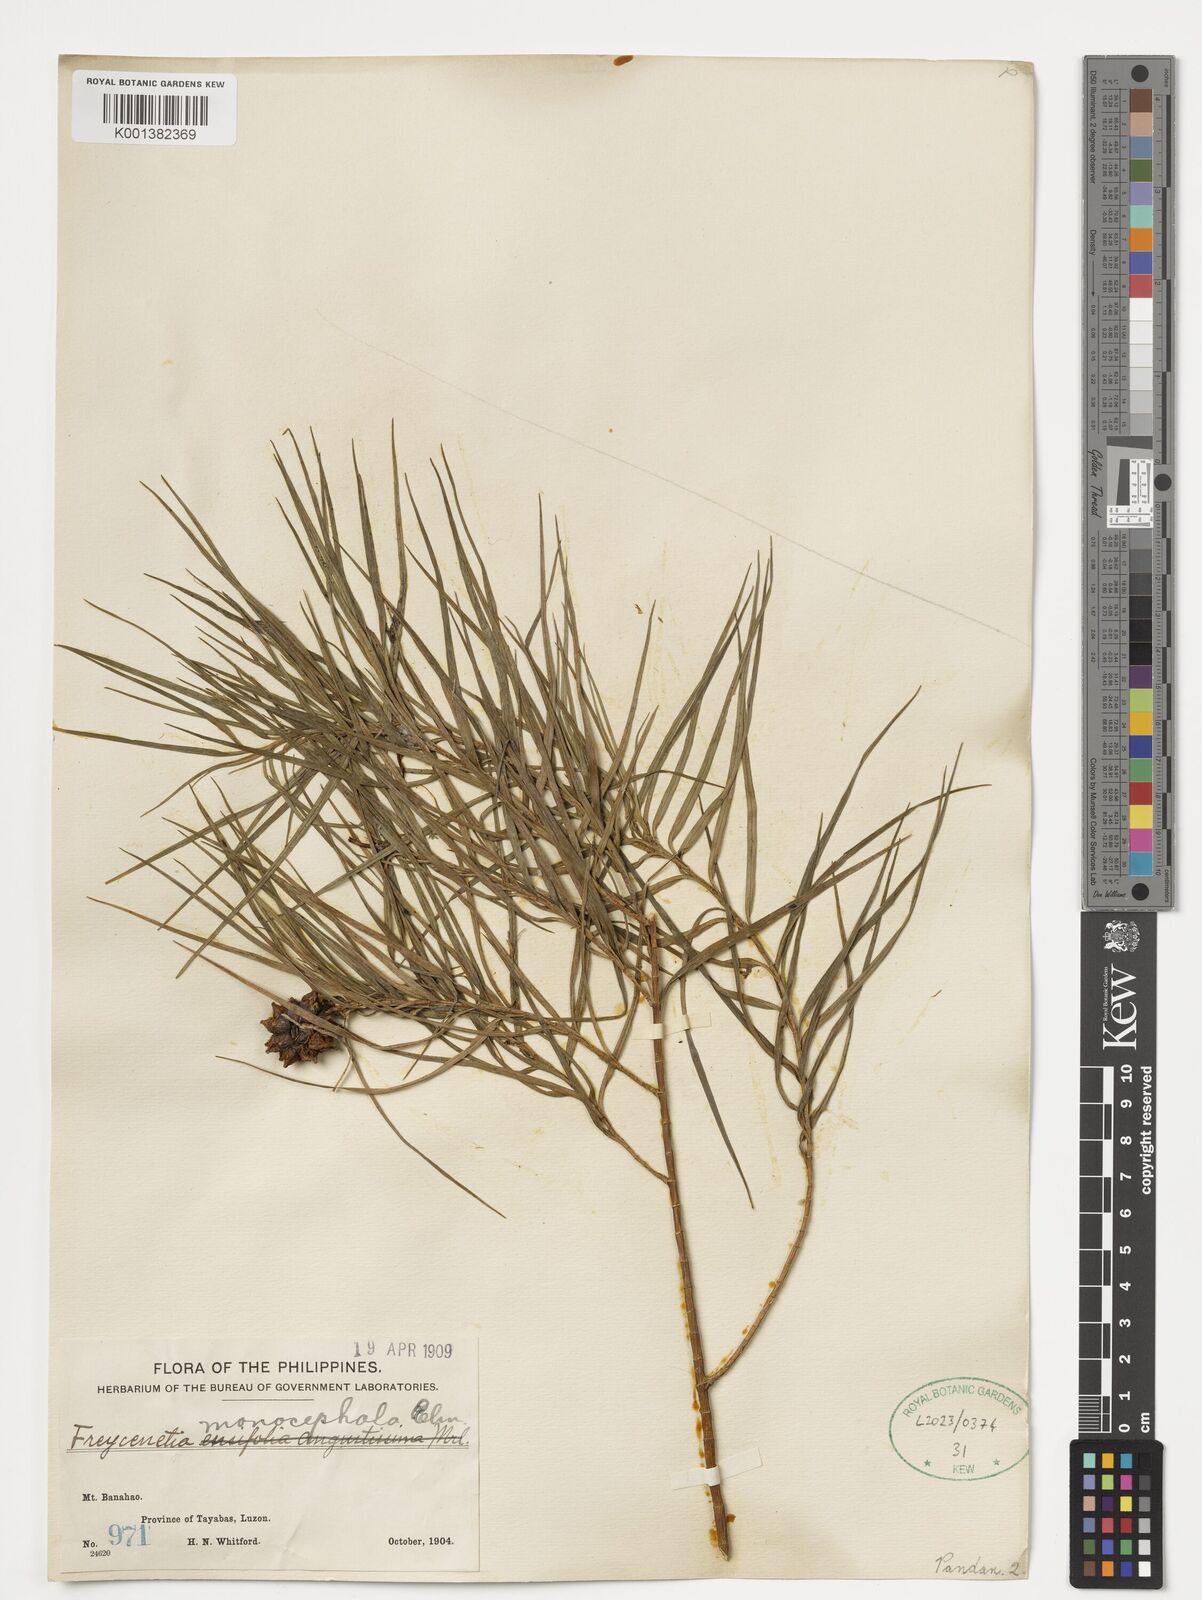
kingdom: Plantae
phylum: Tracheophyta
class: Liliopsida
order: Pandanales
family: Pandanaceae
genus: Freycinetia
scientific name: Freycinetia monocephala
